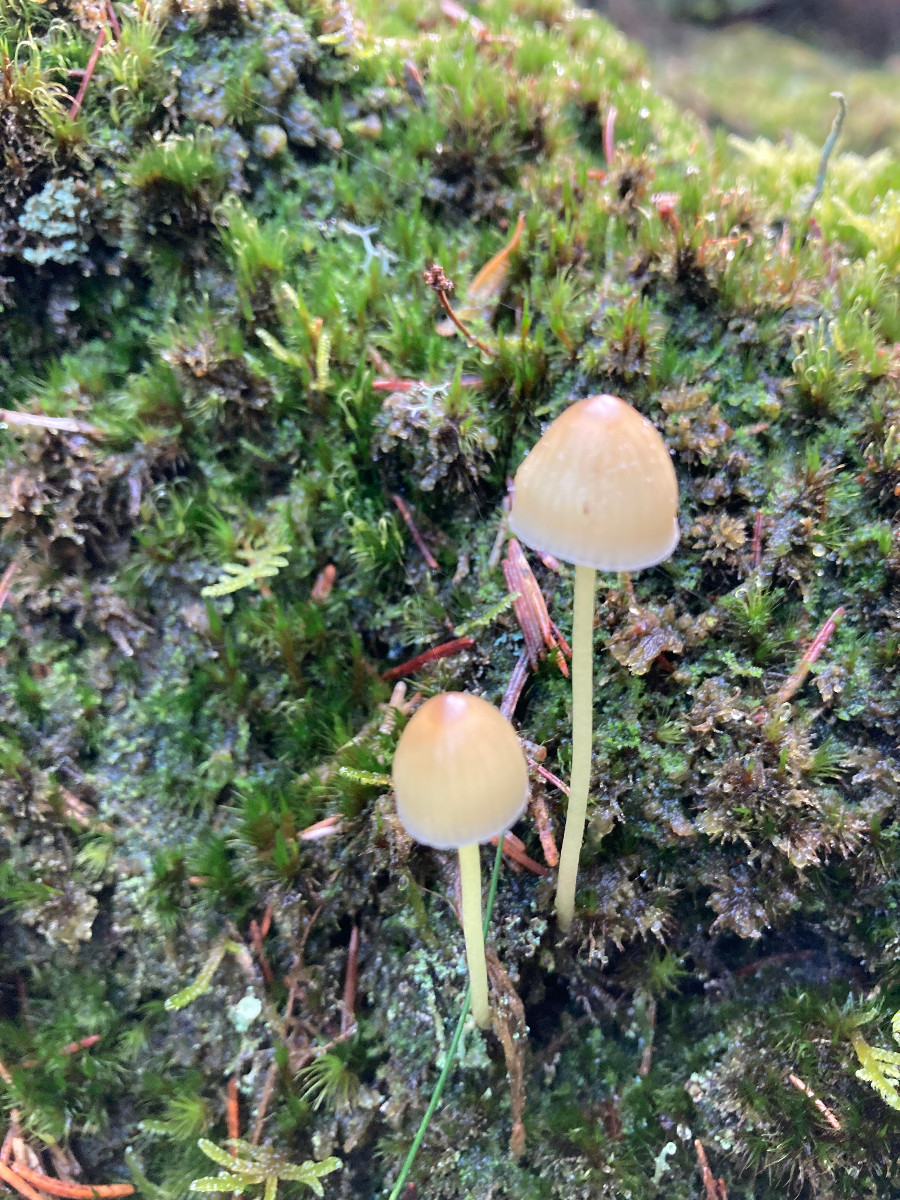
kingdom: Fungi
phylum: Basidiomycota
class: Agaricomycetes
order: Agaricales
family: Mycenaceae
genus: Mycena
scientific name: Mycena epipterygia
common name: gulstokket huesvamp
